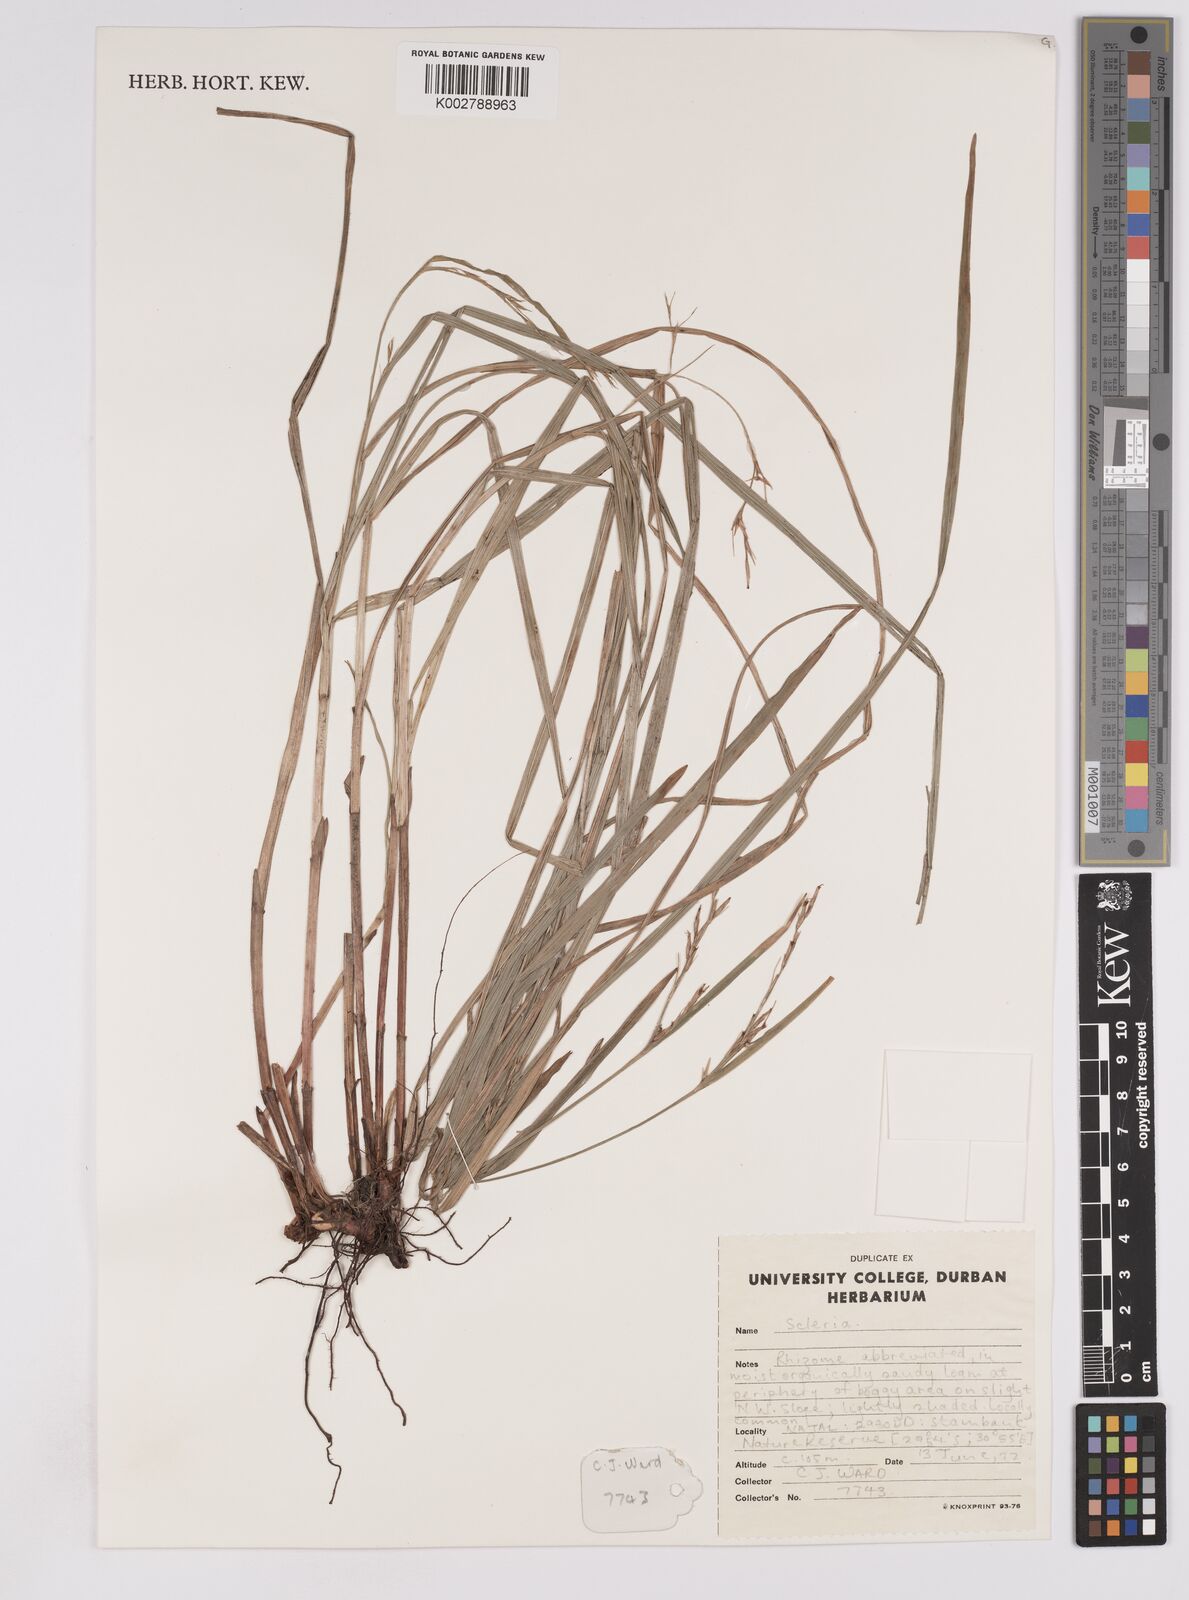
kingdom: Plantae
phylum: Tracheophyta
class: Liliopsida
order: Poales
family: Cyperaceae
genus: Scleria
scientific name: Scleria
